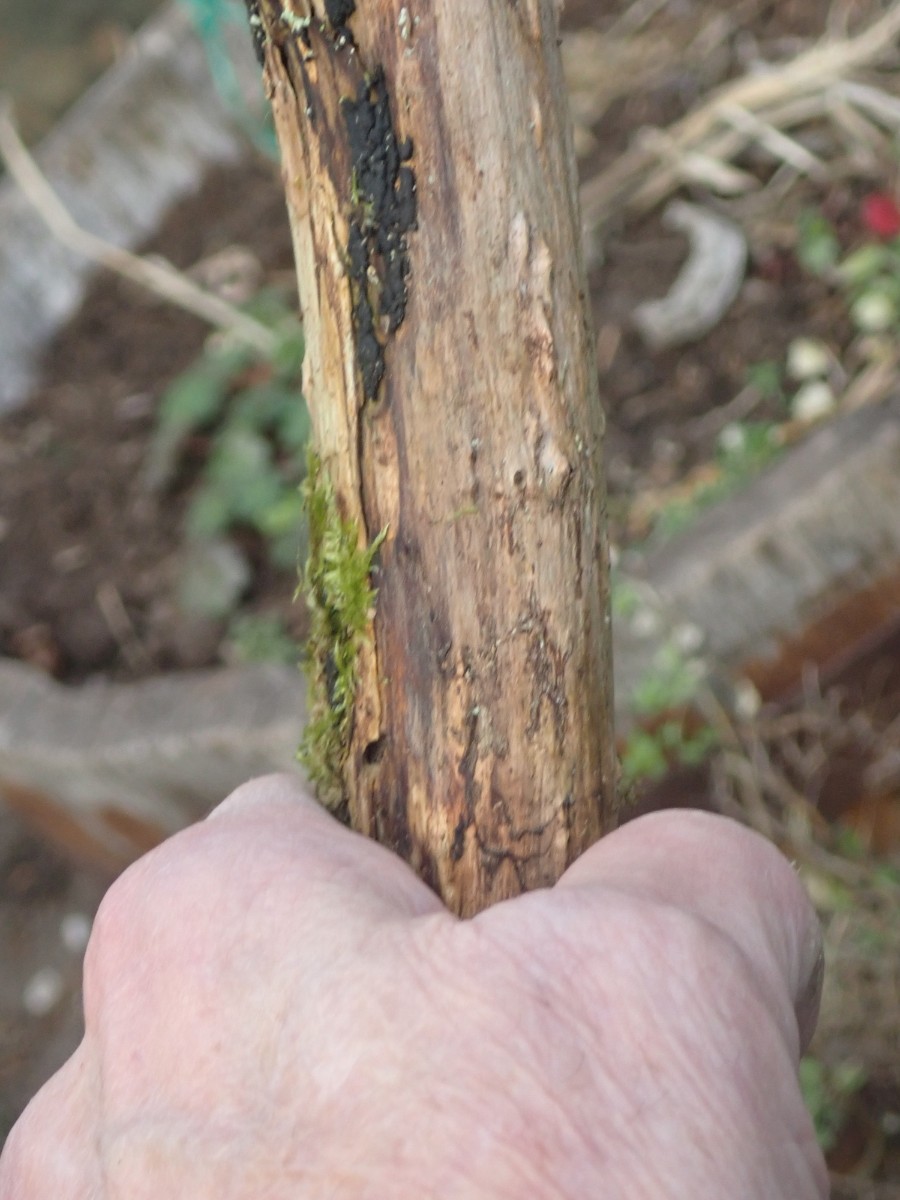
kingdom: Fungi
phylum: Ascomycota
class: Sordariomycetes
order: Xylariales
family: Xylariaceae
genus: Nemania
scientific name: Nemania
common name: kuldyne
